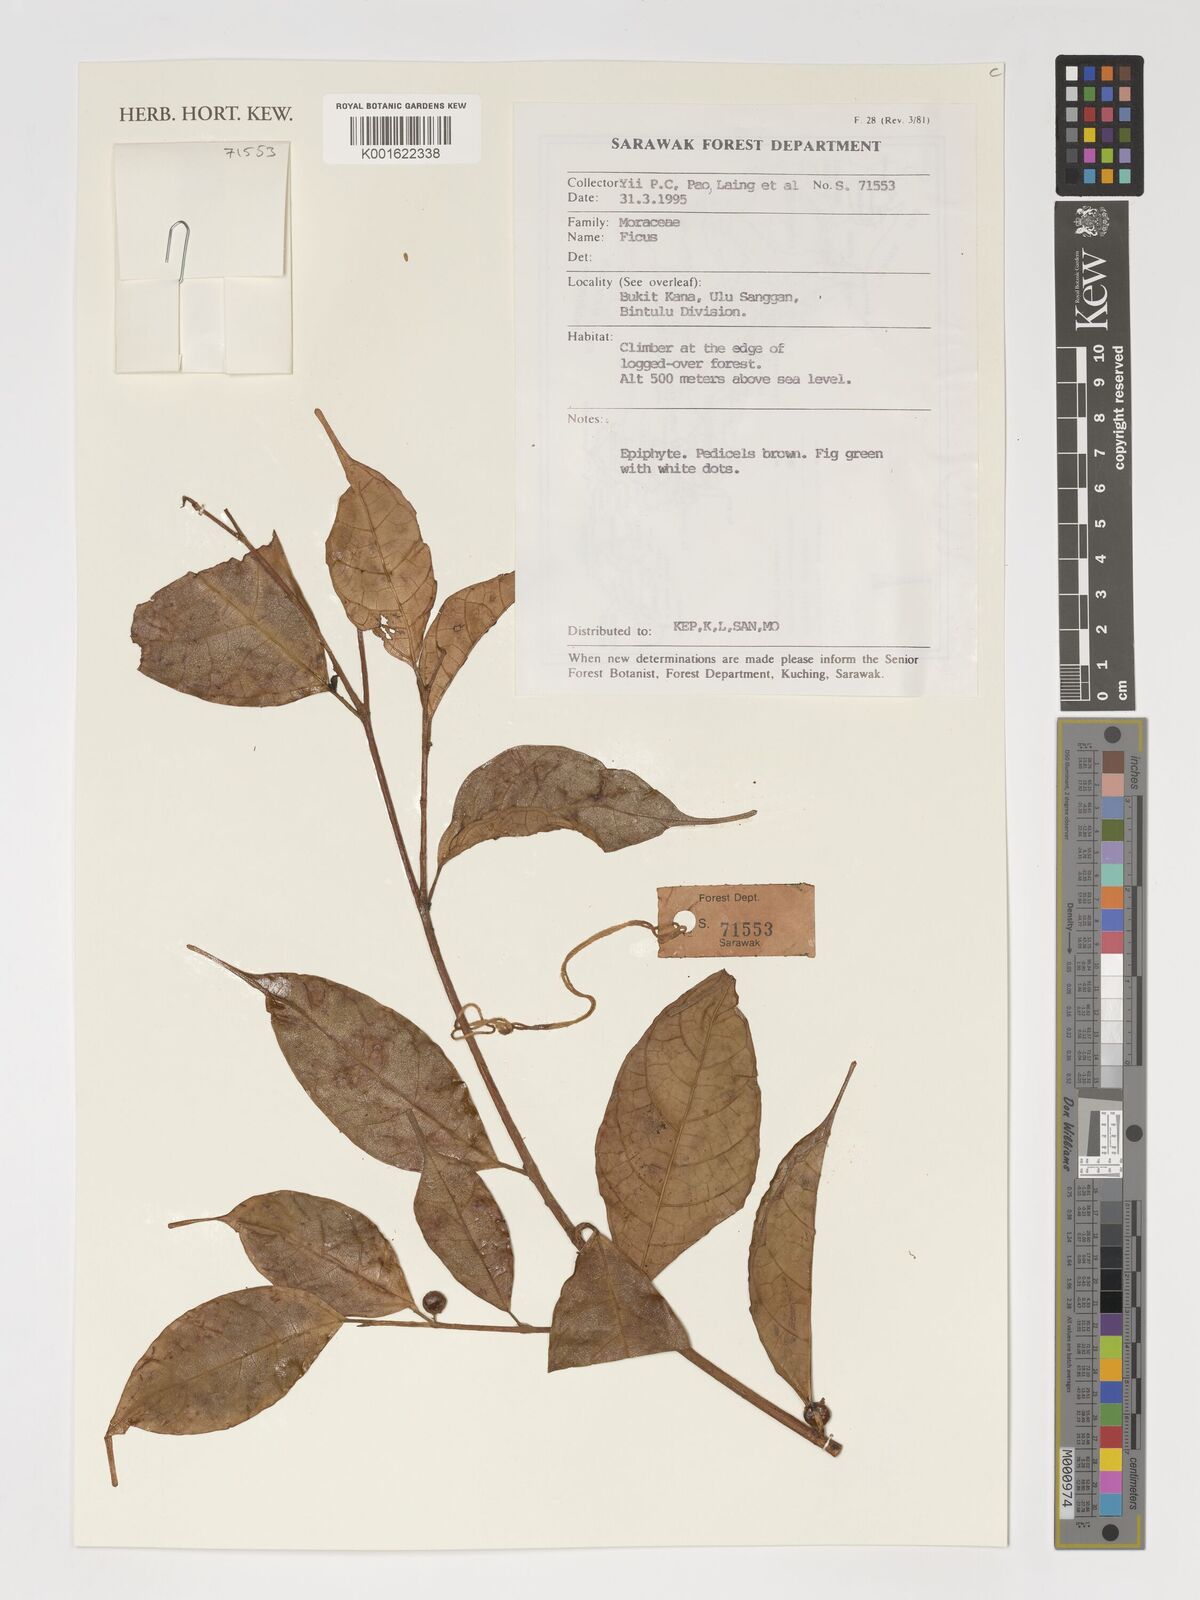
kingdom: Plantae
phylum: Tracheophyta
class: Magnoliopsida
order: Rosales
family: Moraceae
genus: Ficus
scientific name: Ficus
